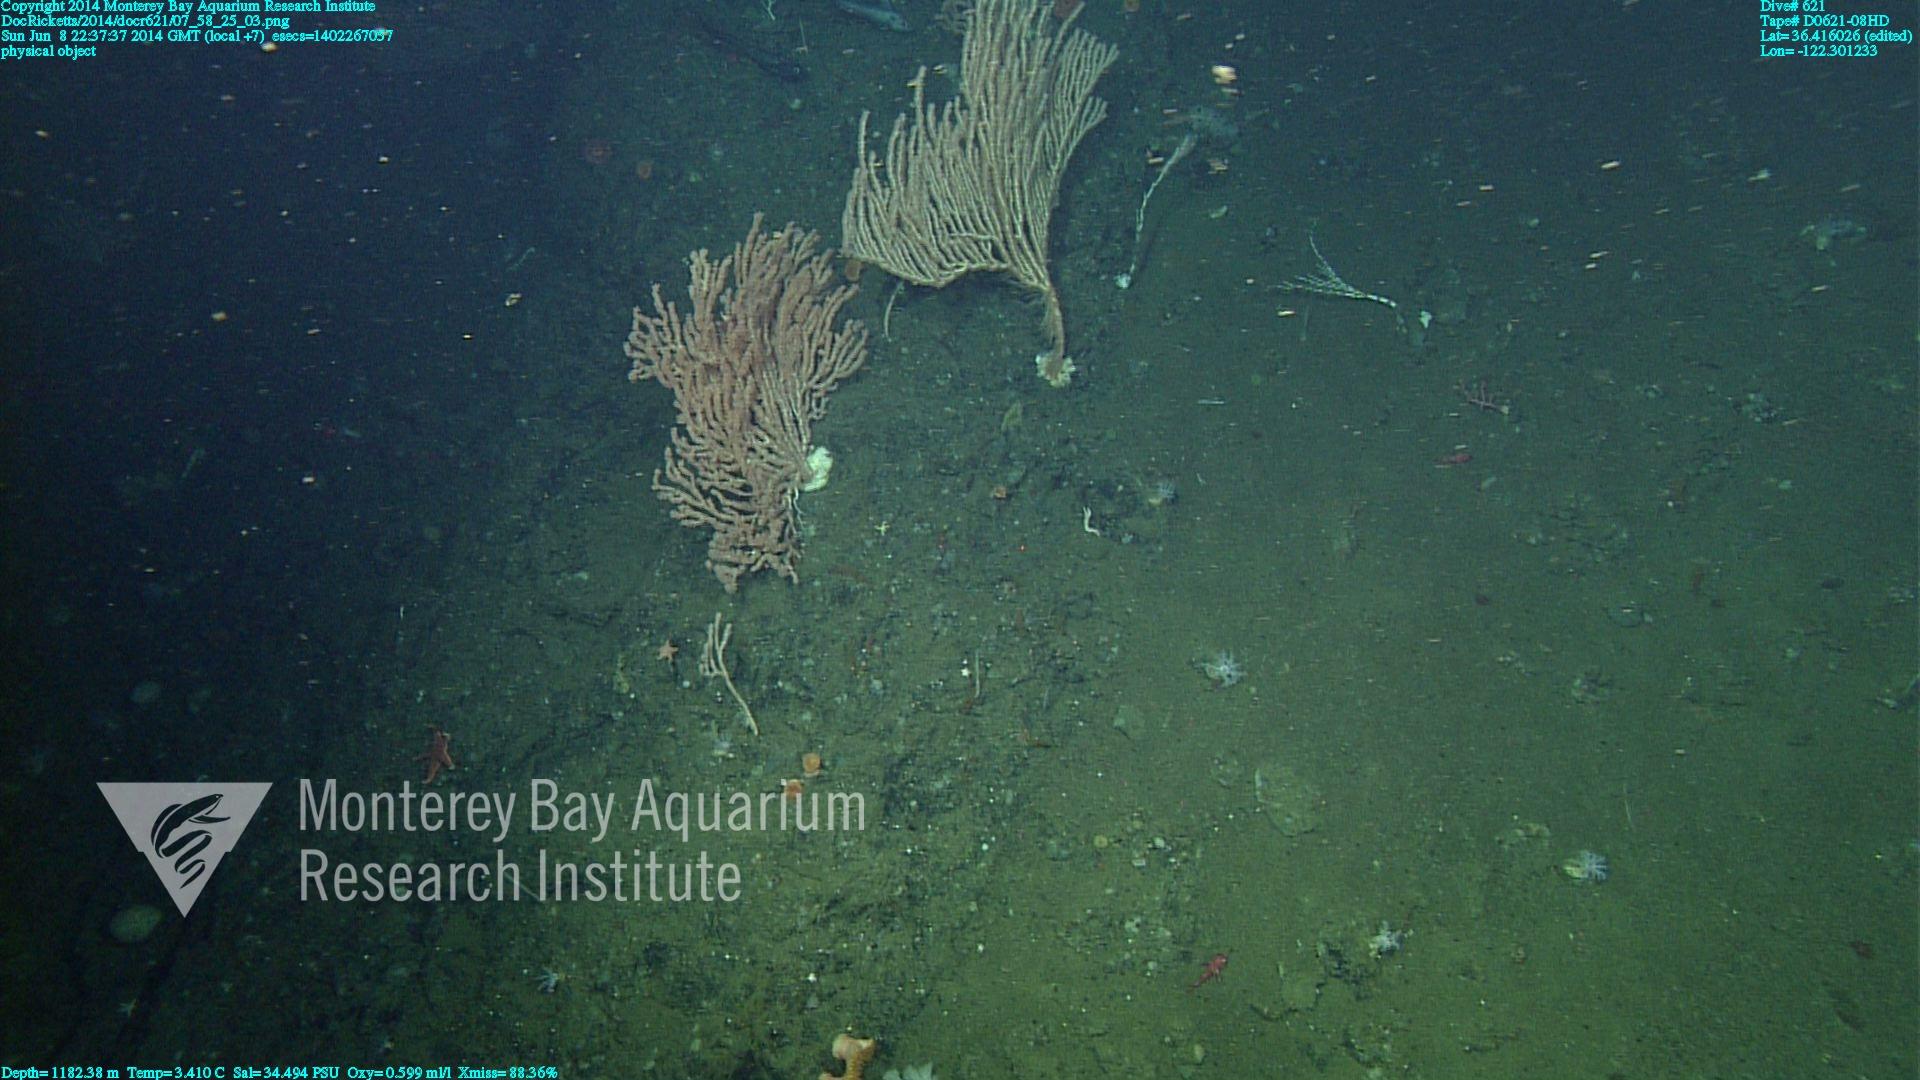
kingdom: Animalia
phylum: Cnidaria
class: Anthozoa
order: Scleralcyonacea
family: Keratoisididae
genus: Keratoisis
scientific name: Keratoisis
